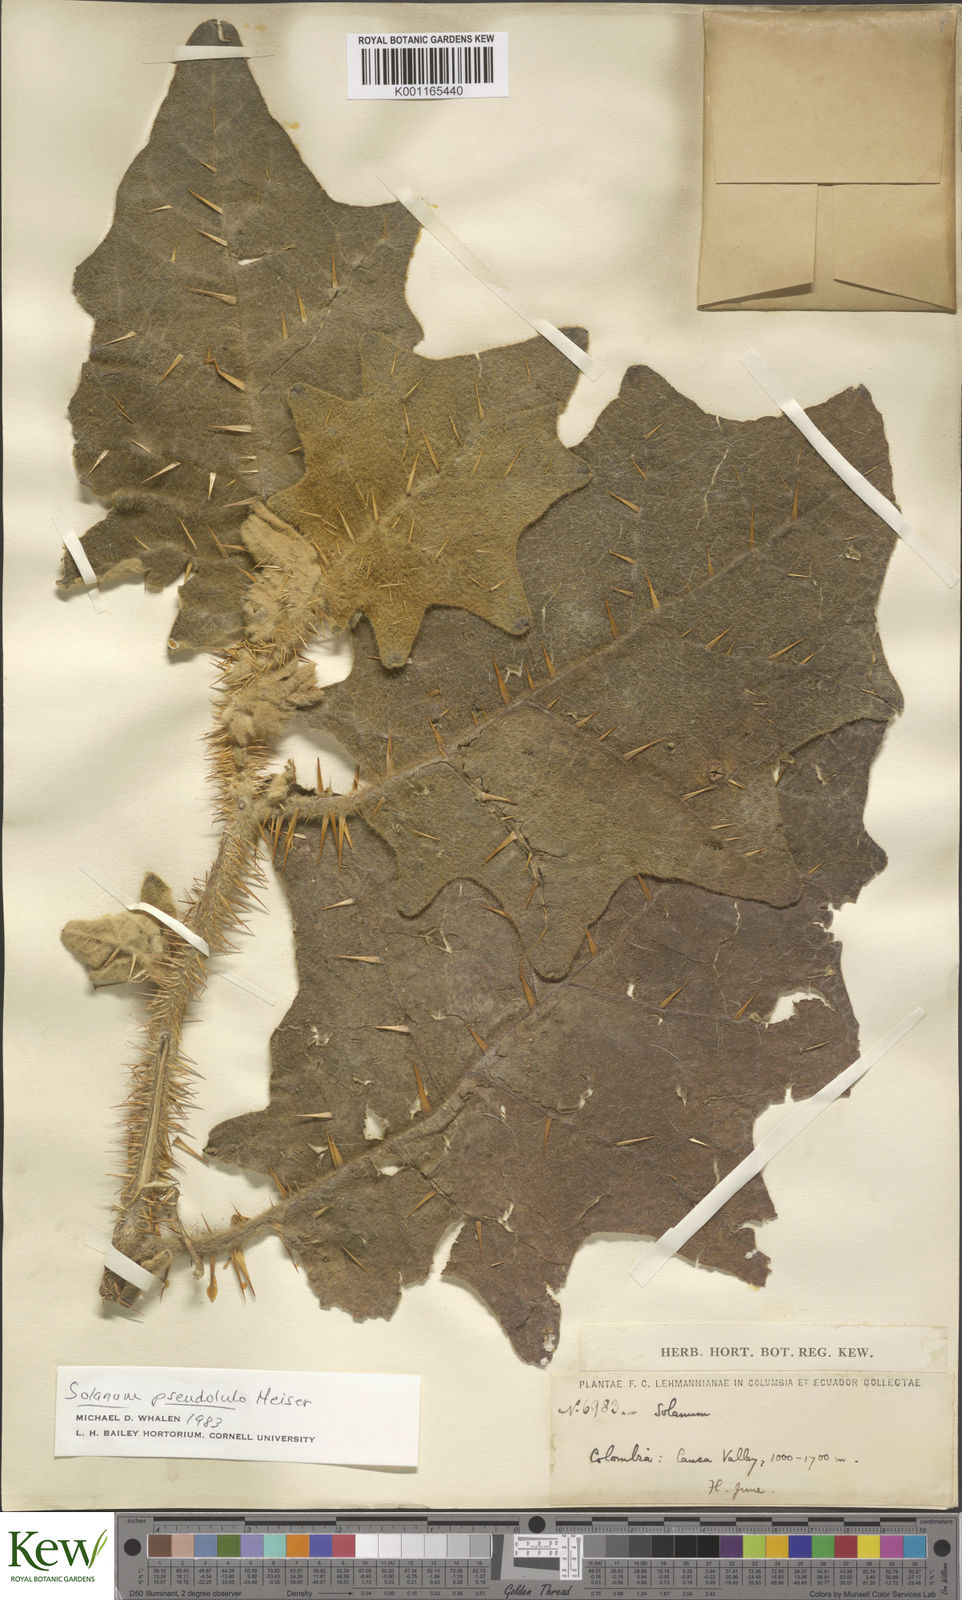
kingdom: Plantae
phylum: Tracheophyta
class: Magnoliopsida
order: Solanales
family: Solanaceae
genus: Solanum
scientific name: Solanum pseudolulo
